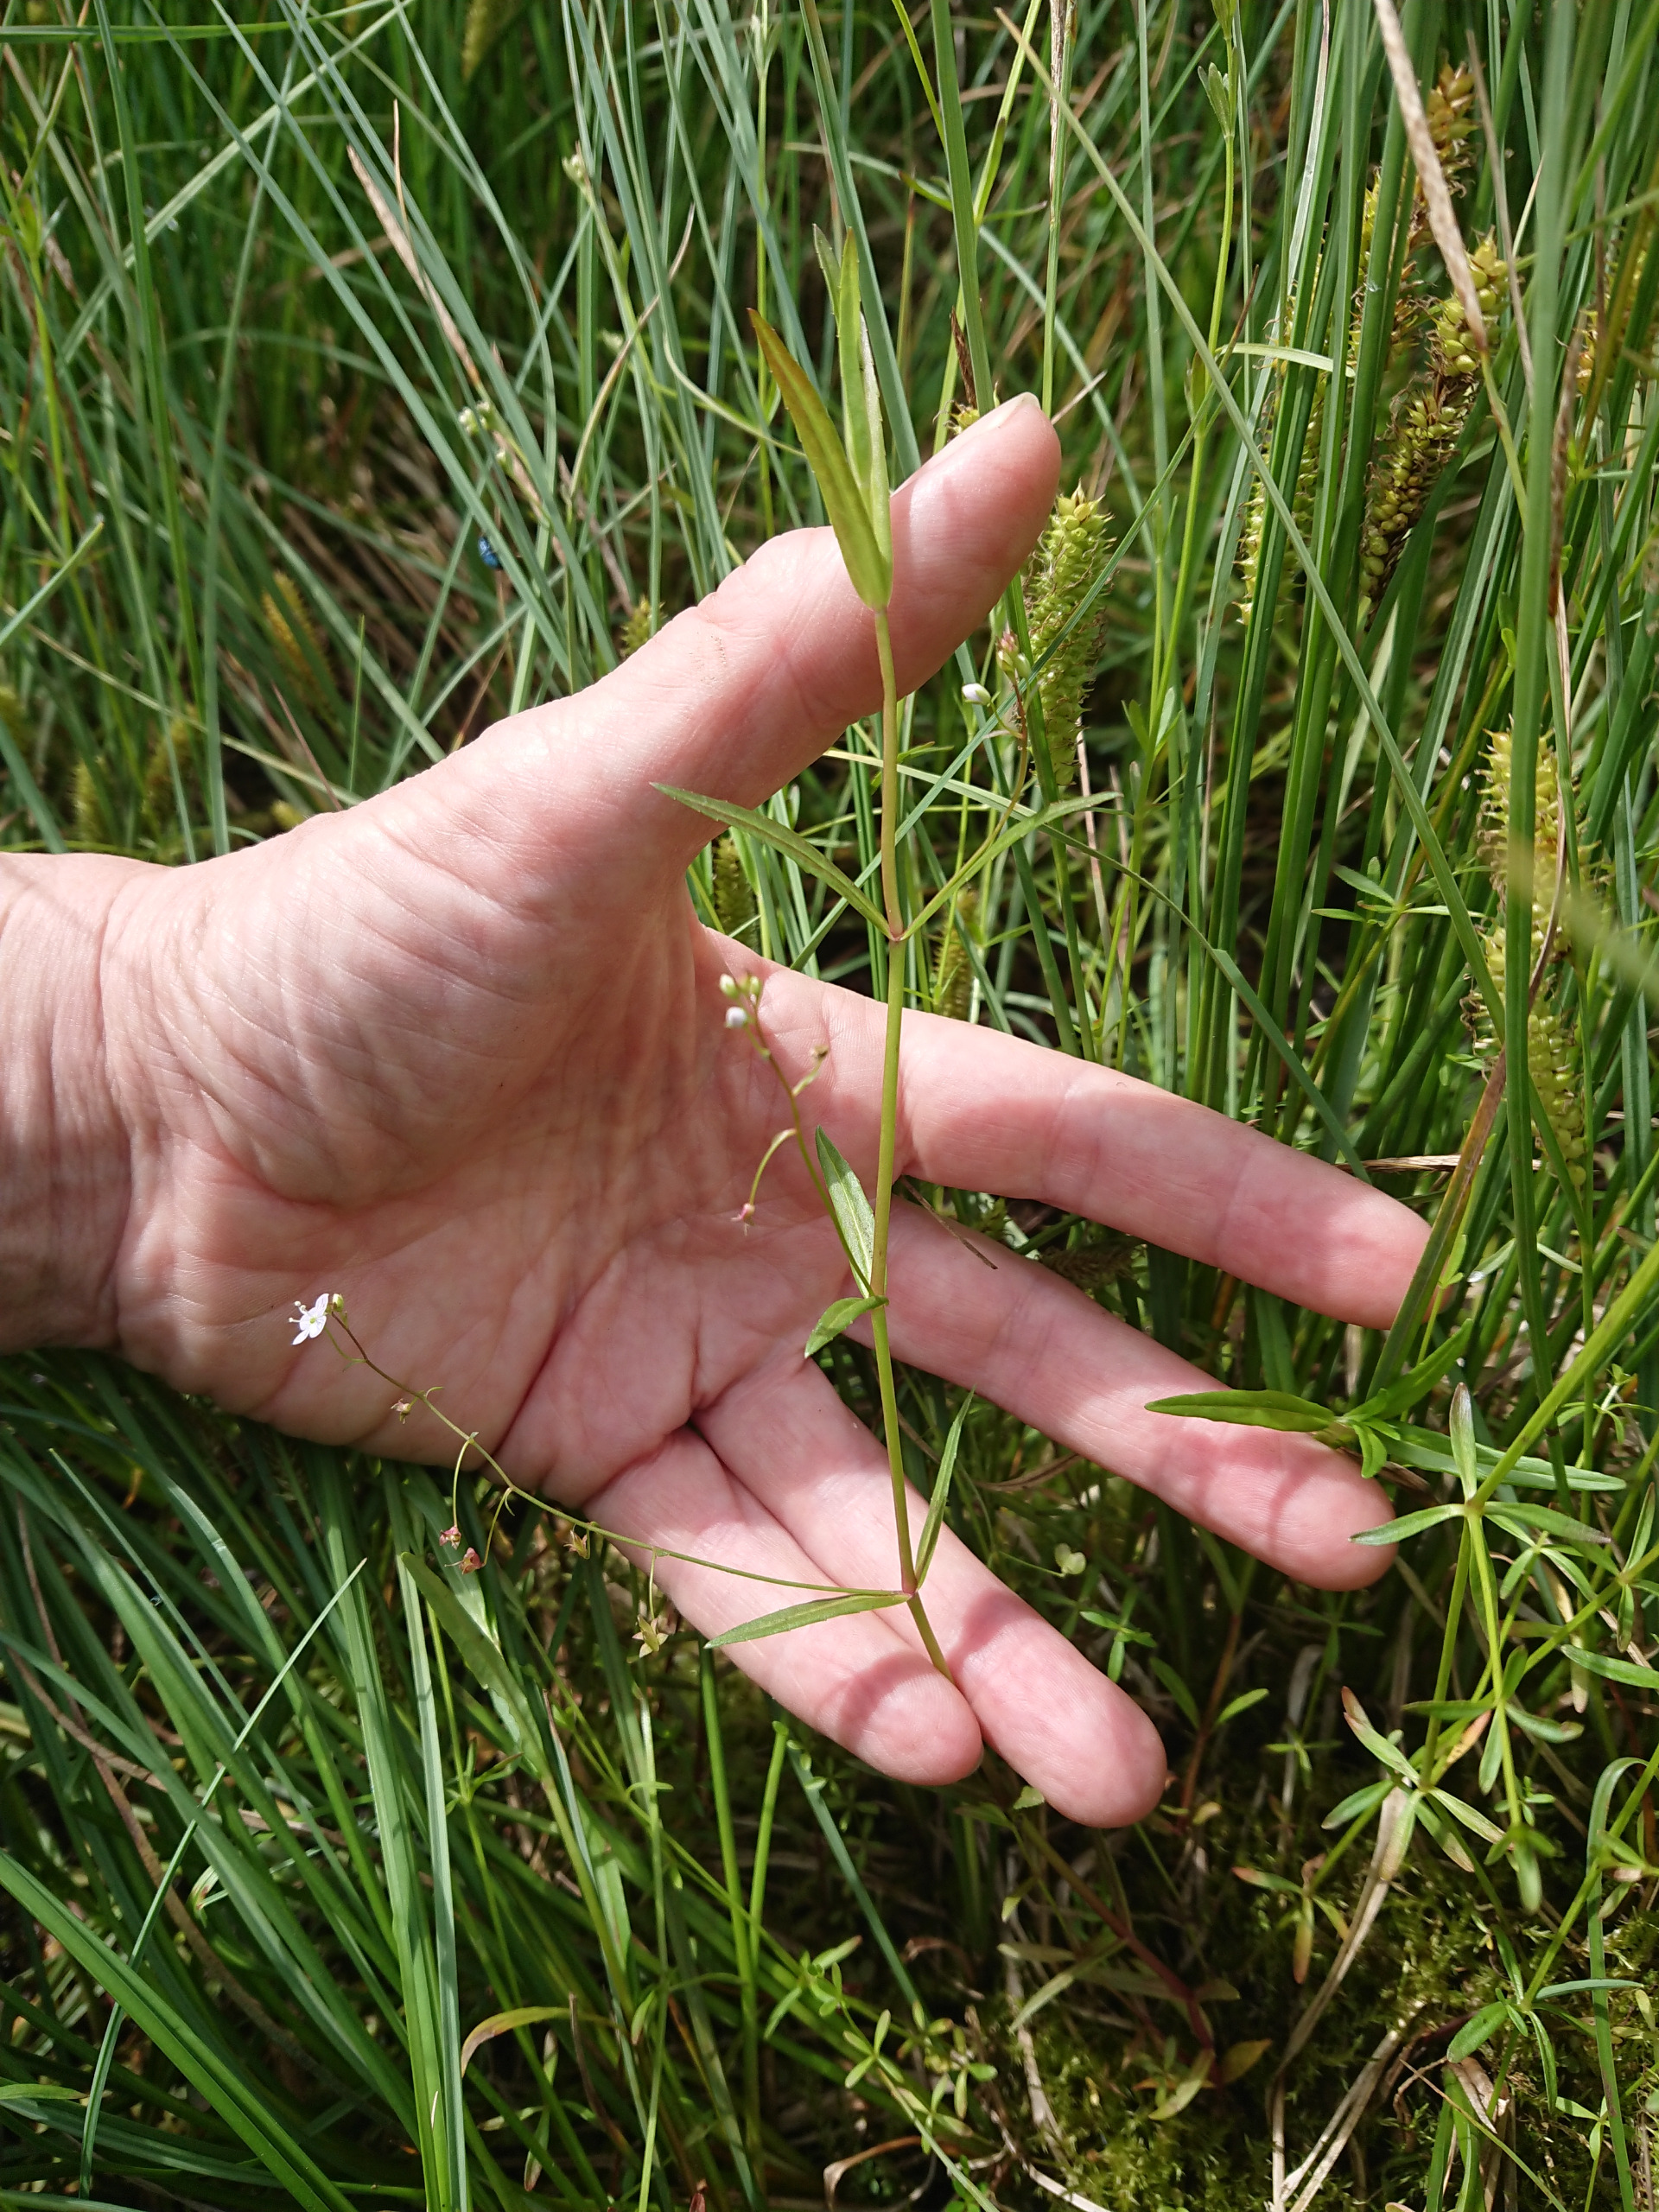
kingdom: Plantae
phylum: Tracheophyta
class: Magnoliopsida
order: Lamiales
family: Plantaginaceae
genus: Veronica
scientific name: Veronica scutellata
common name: Smalbladet ærenpris
